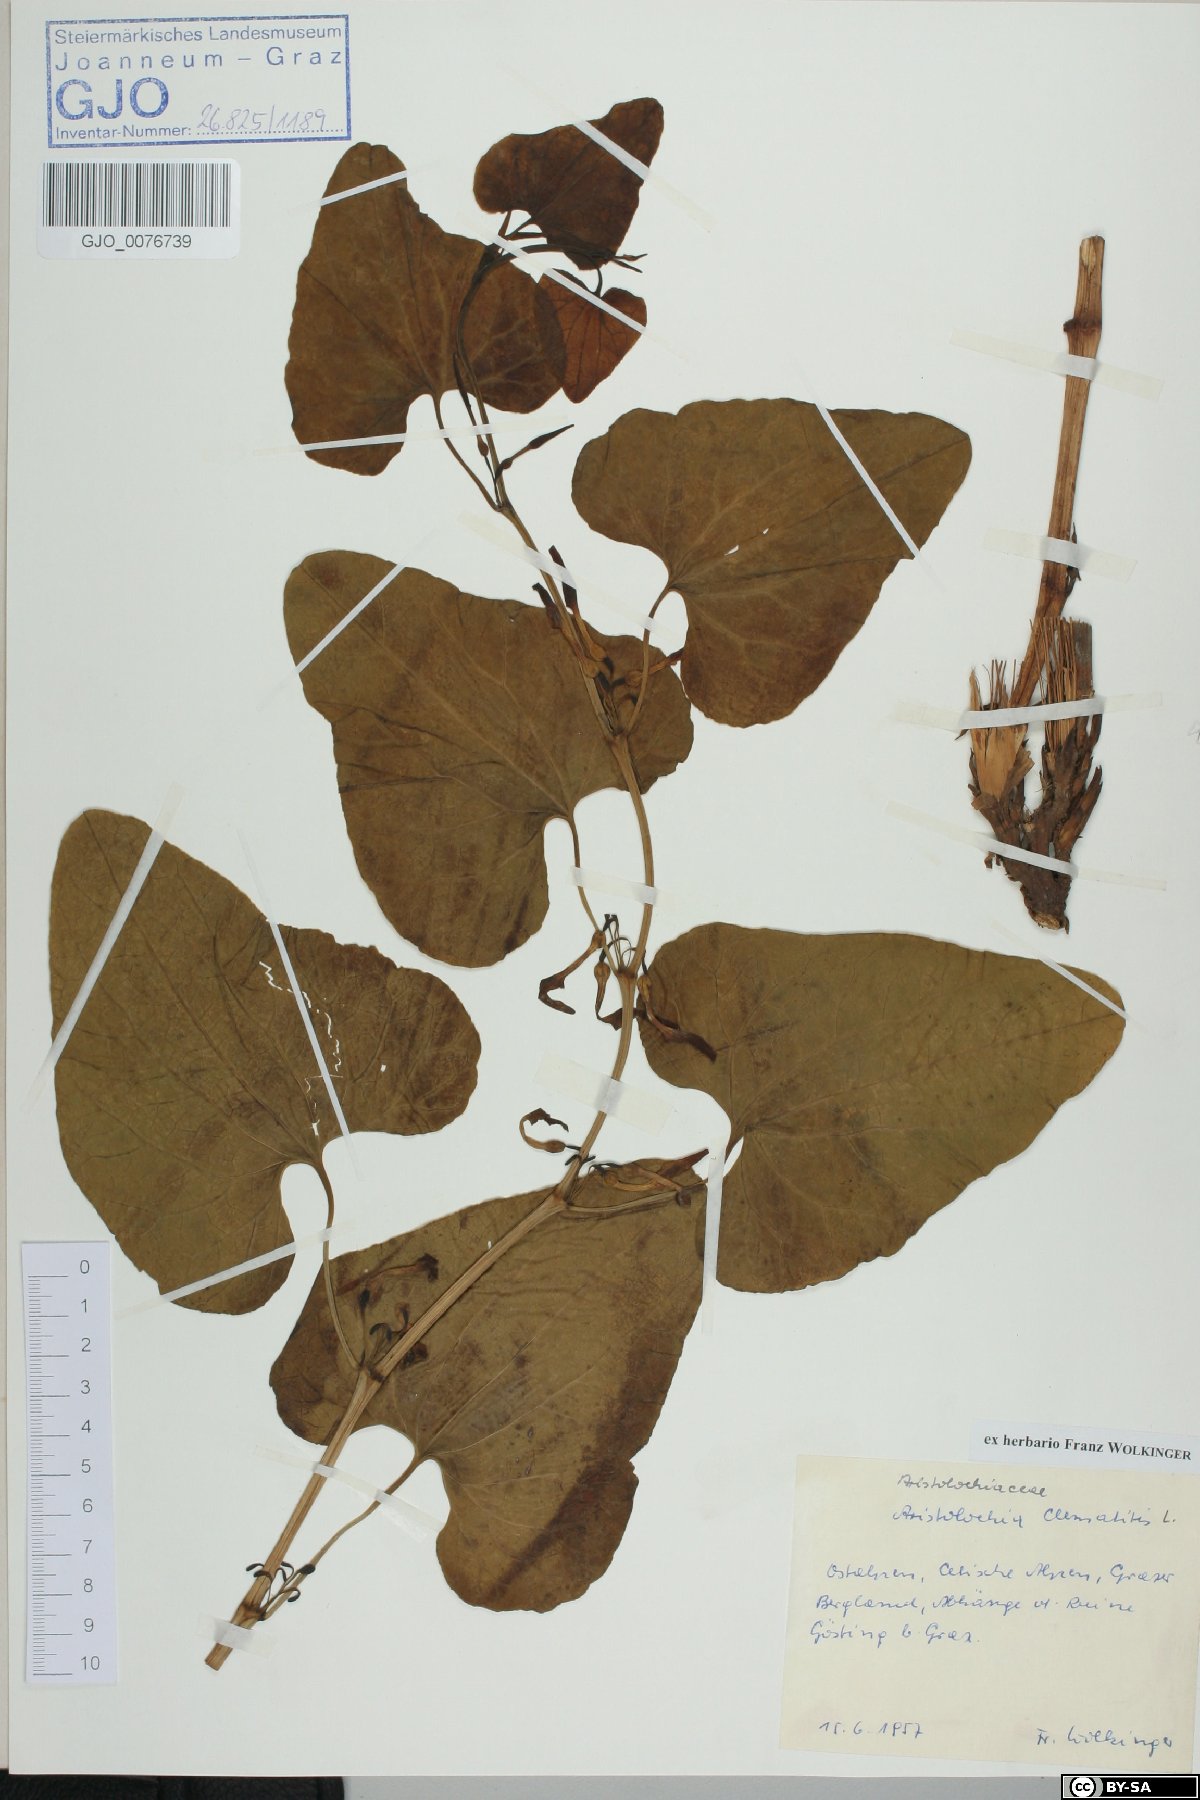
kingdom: Plantae
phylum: Tracheophyta
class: Magnoliopsida
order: Piperales
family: Aristolochiaceae
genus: Aristolochia
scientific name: Aristolochia clematitis
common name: Birthwort
